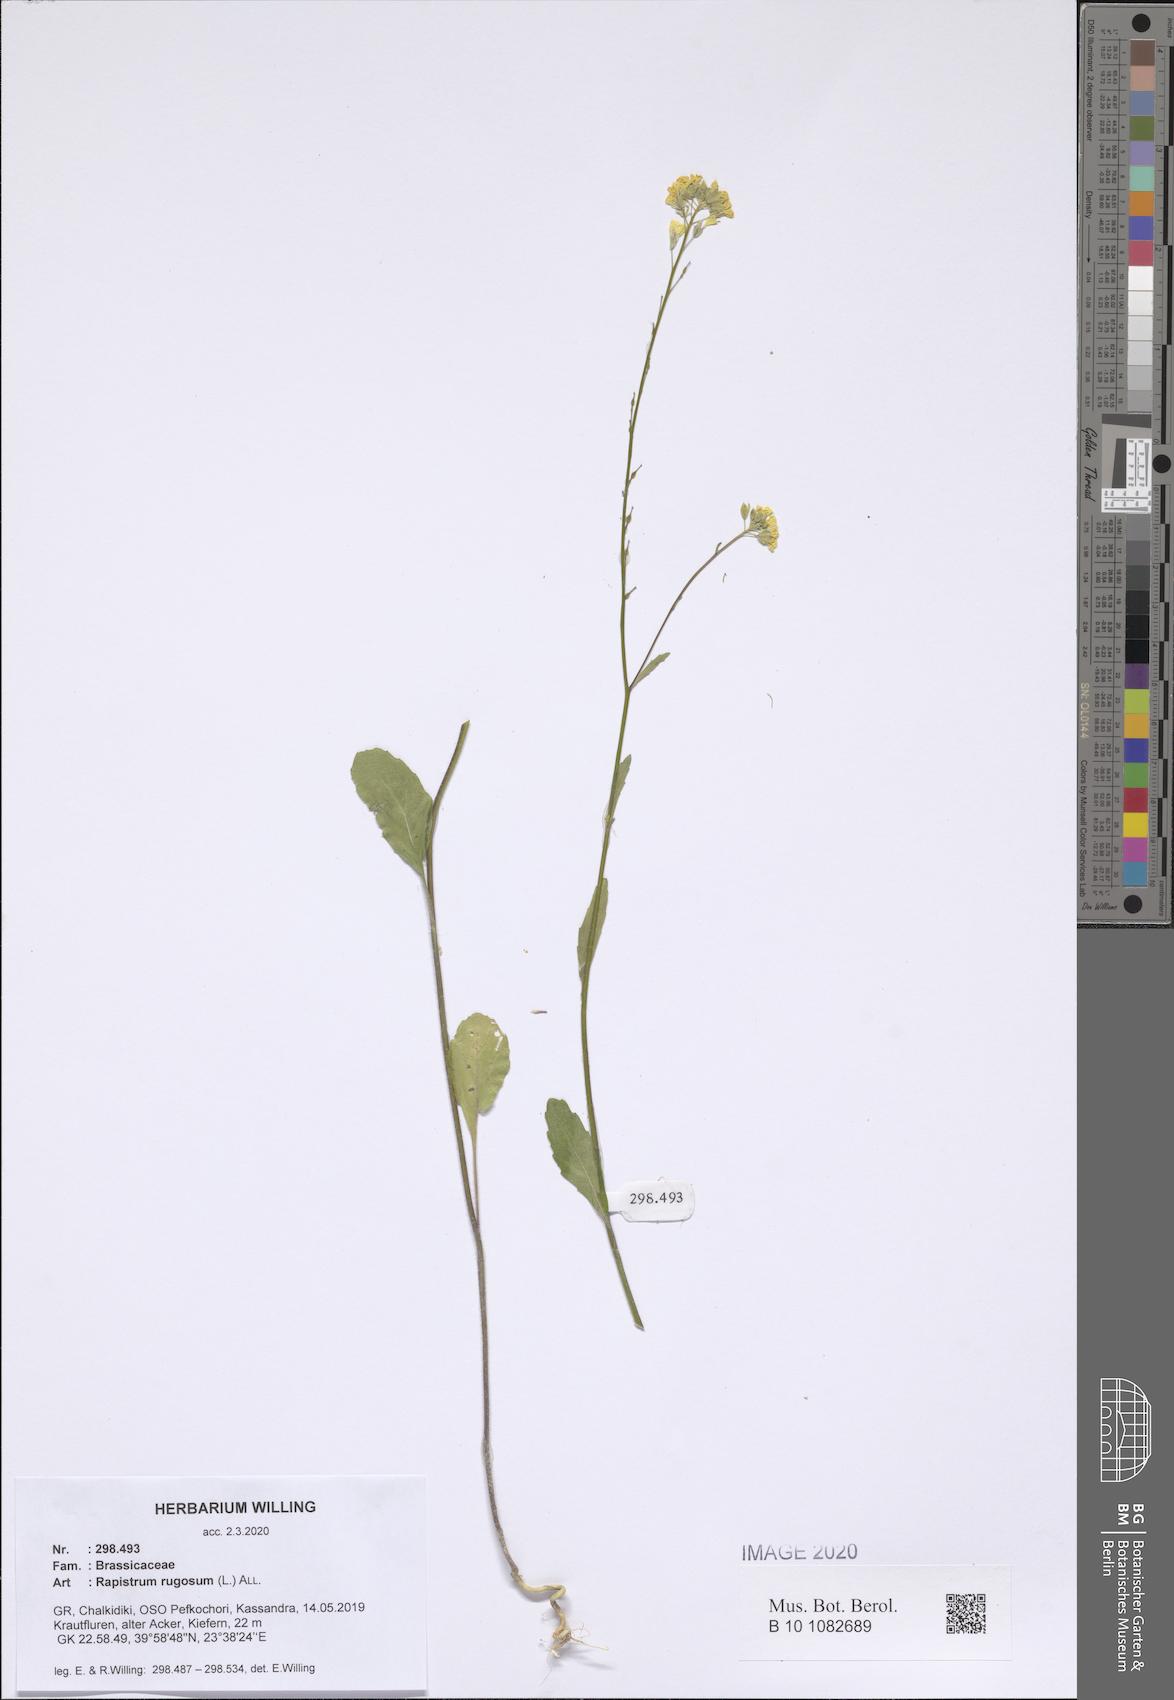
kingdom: Plantae
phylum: Tracheophyta
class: Magnoliopsida
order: Brassicales
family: Brassicaceae
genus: Rapistrum
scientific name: Rapistrum rugosum
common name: Annual bastardcabbage
